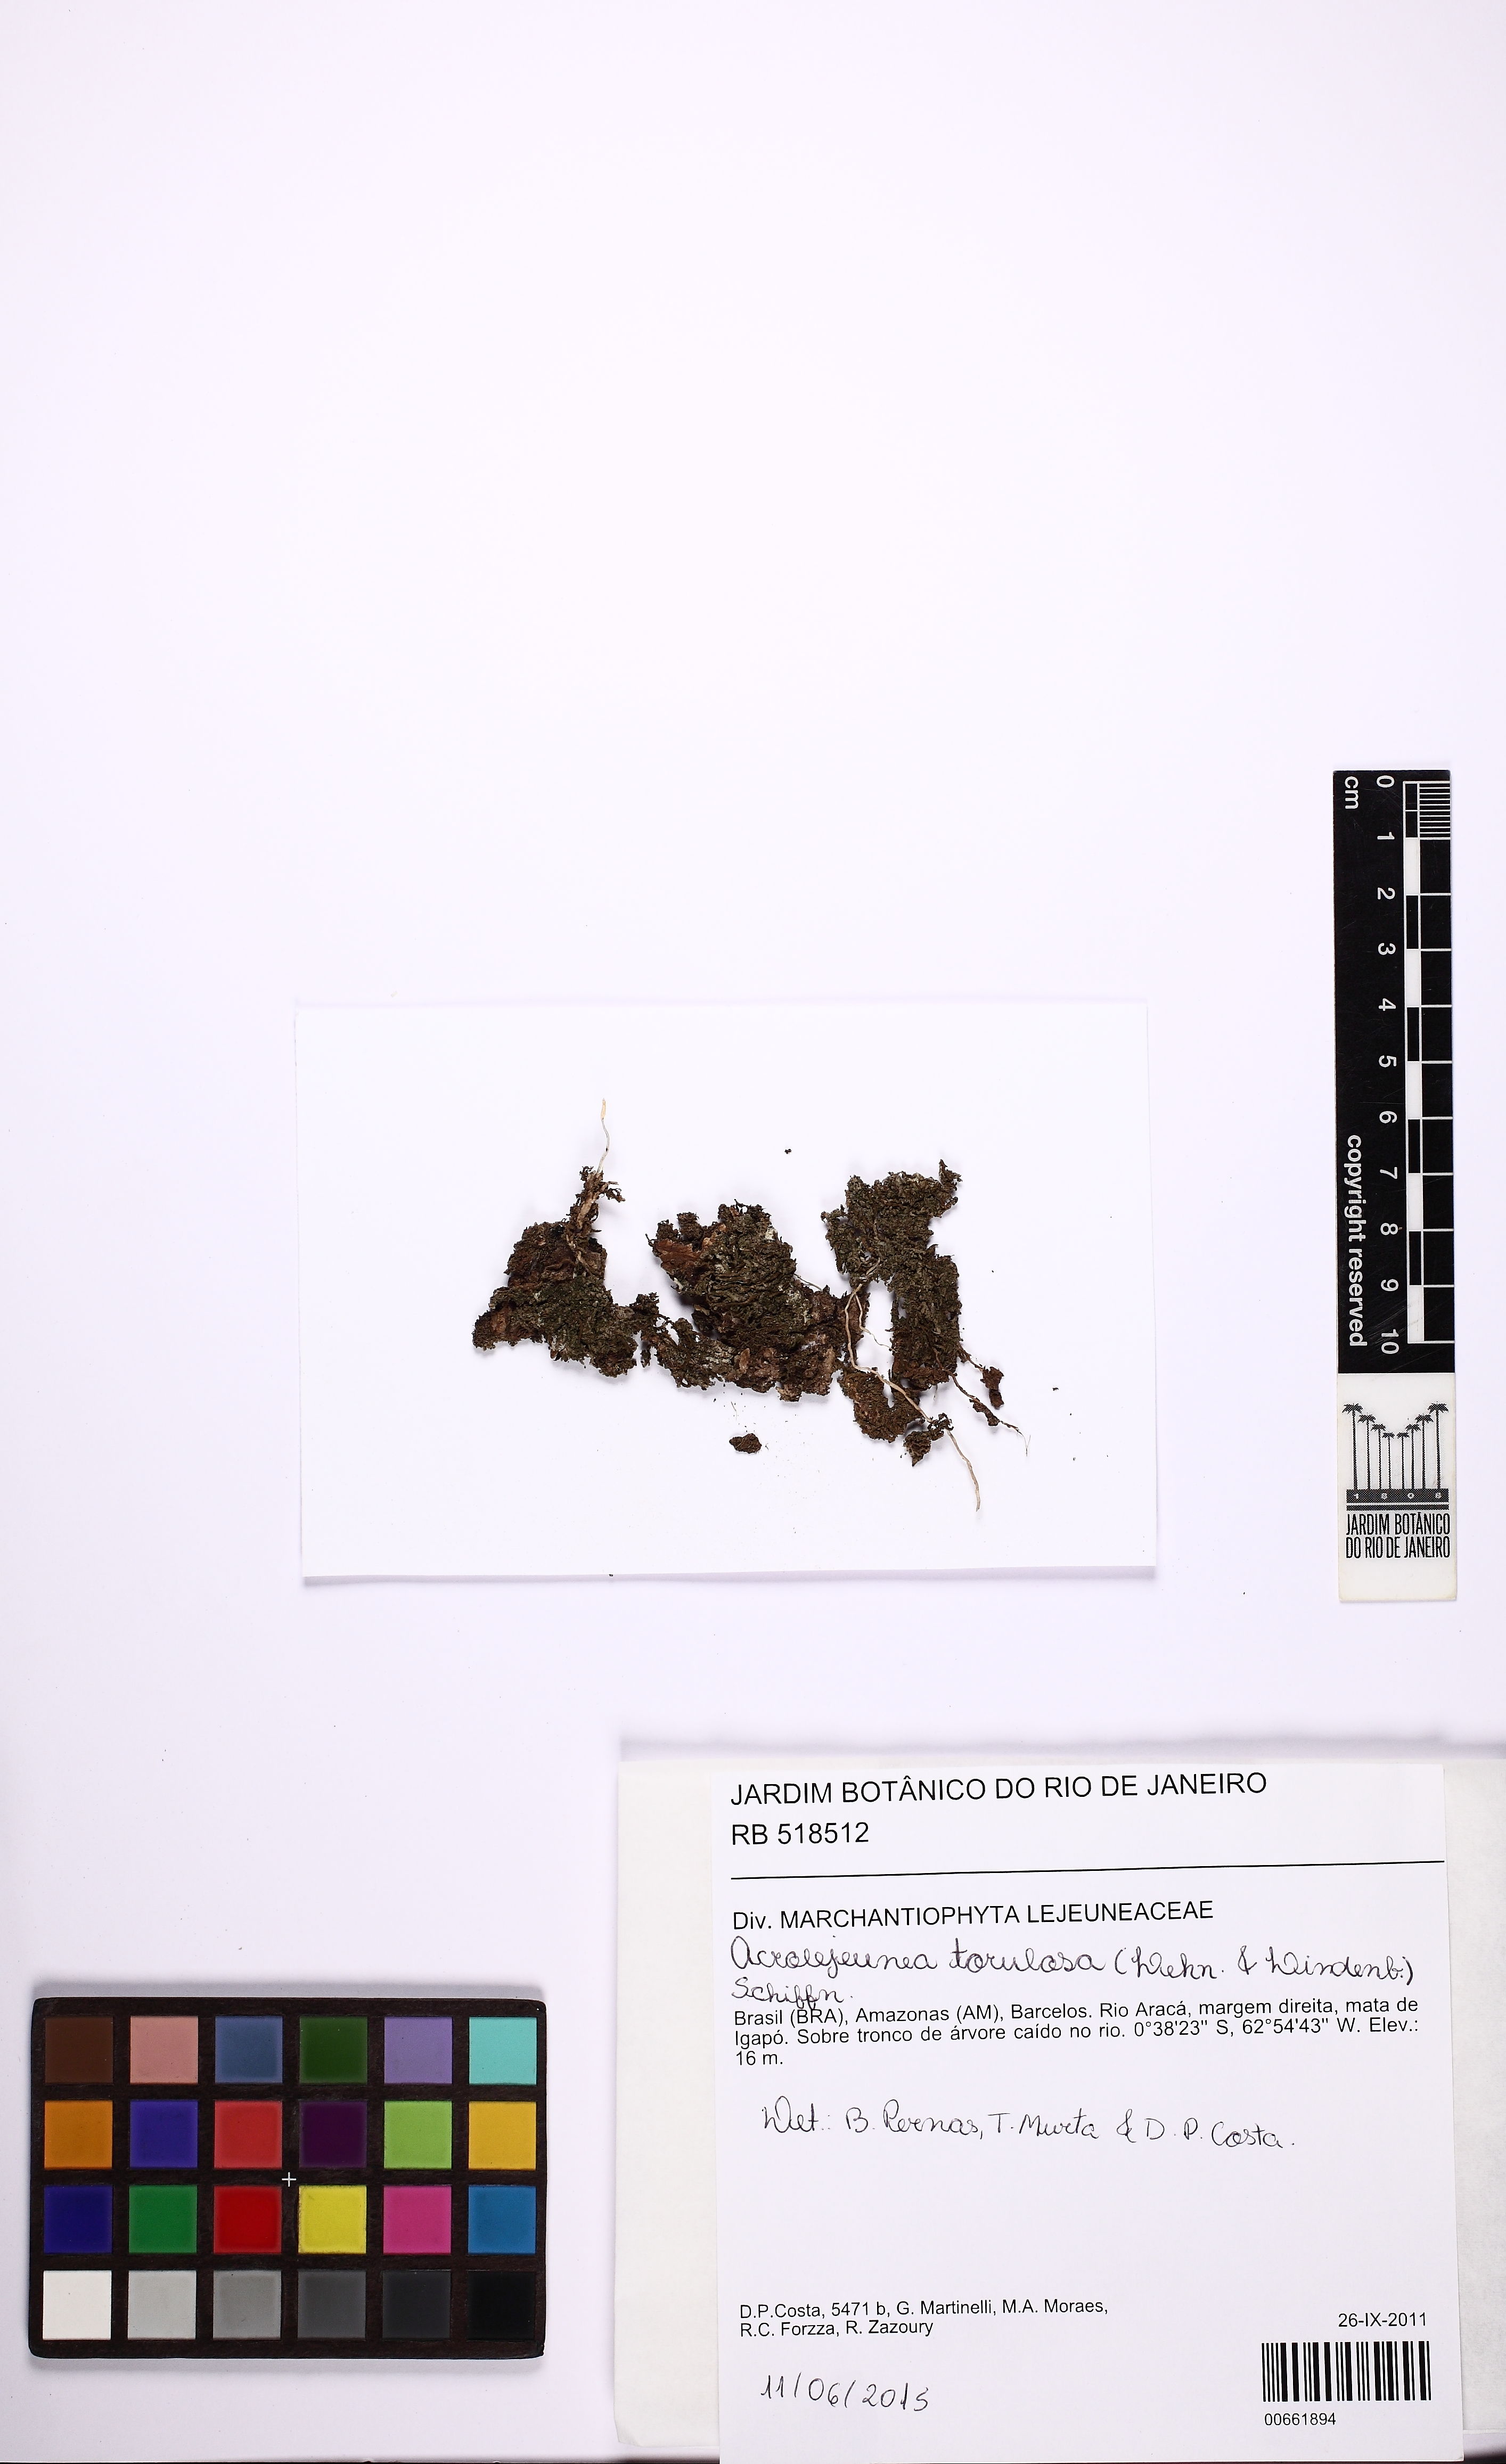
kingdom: Plantae
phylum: Marchantiophyta
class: Jungermanniopsida
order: Porellales
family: Lejeuneaceae
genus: Acrolejeunea
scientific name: Acrolejeunea torulosa
